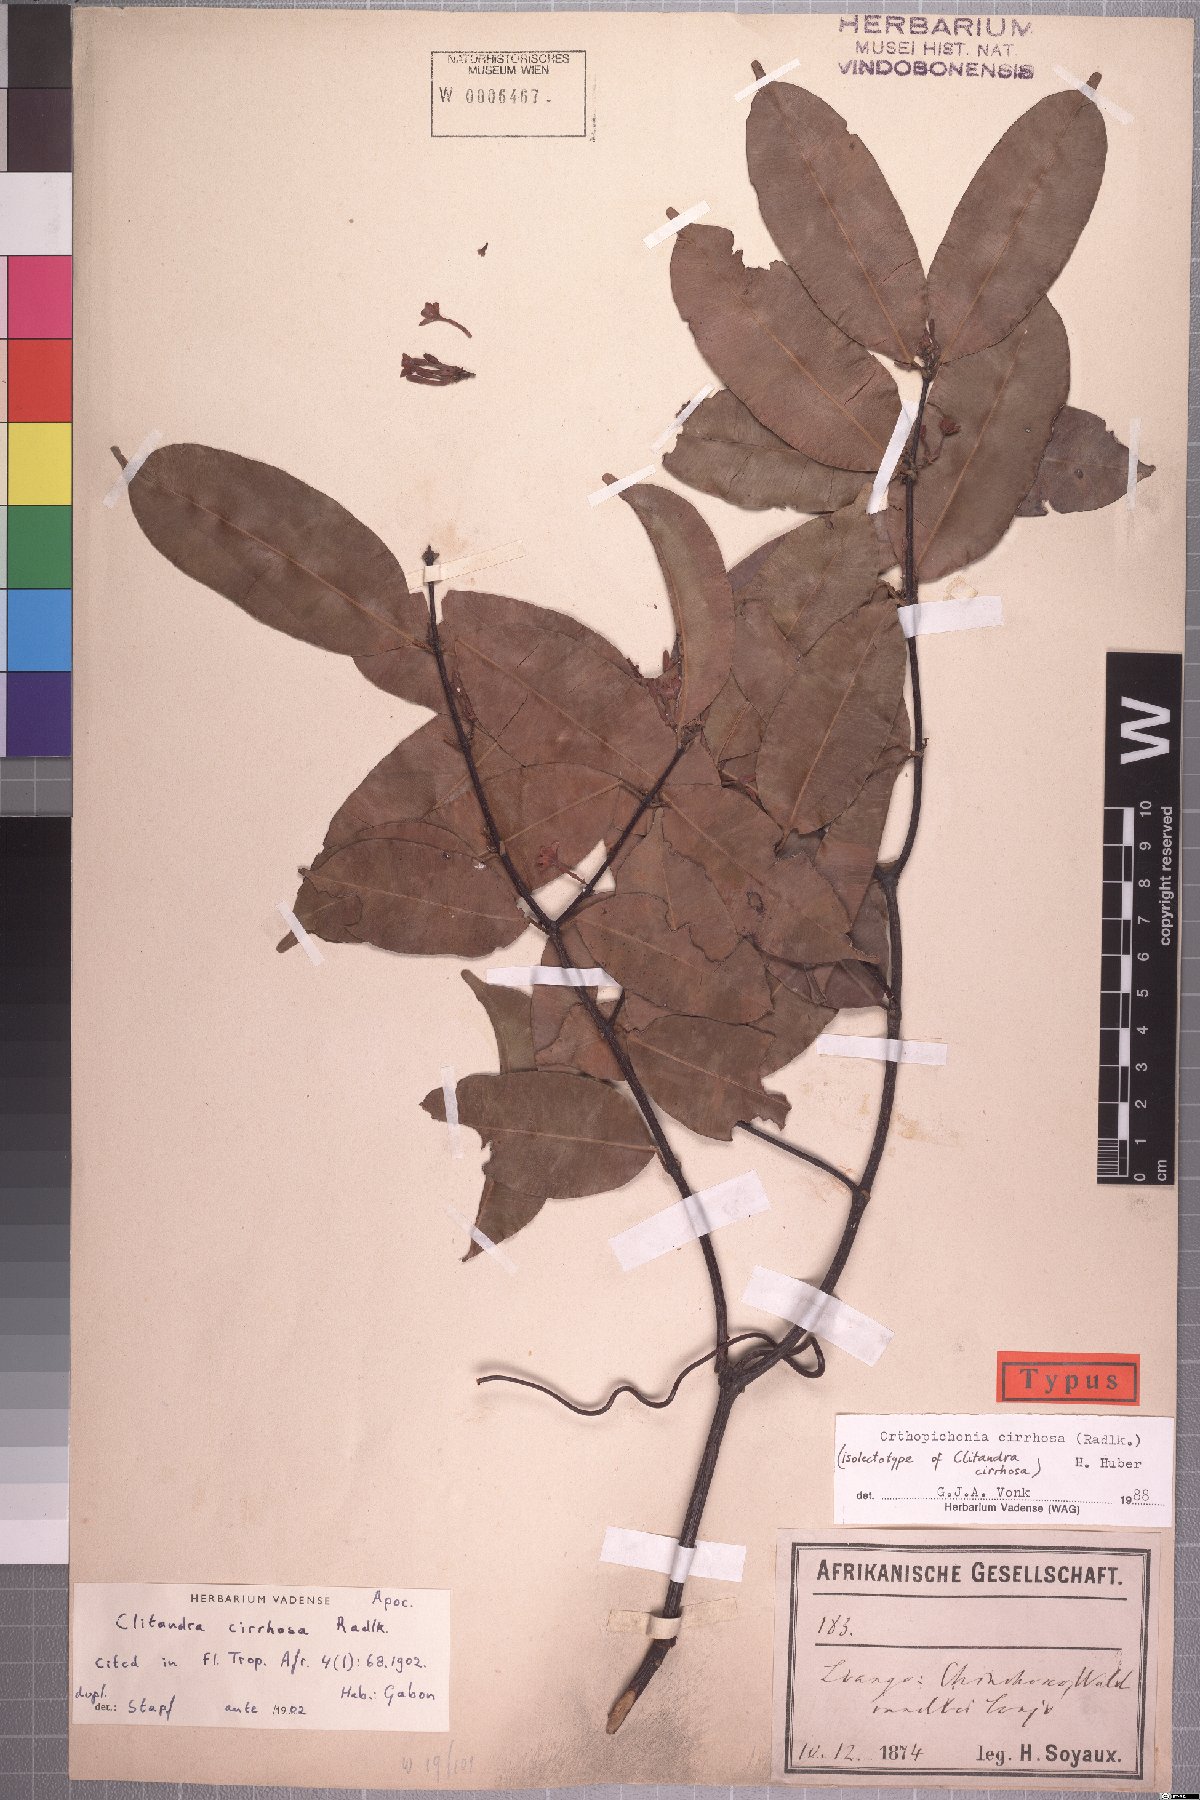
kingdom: Plantae
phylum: Tracheophyta
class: Magnoliopsida
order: Gentianales
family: Apocynaceae
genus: Orthopichonia
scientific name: Orthopichonia cirrhosa
